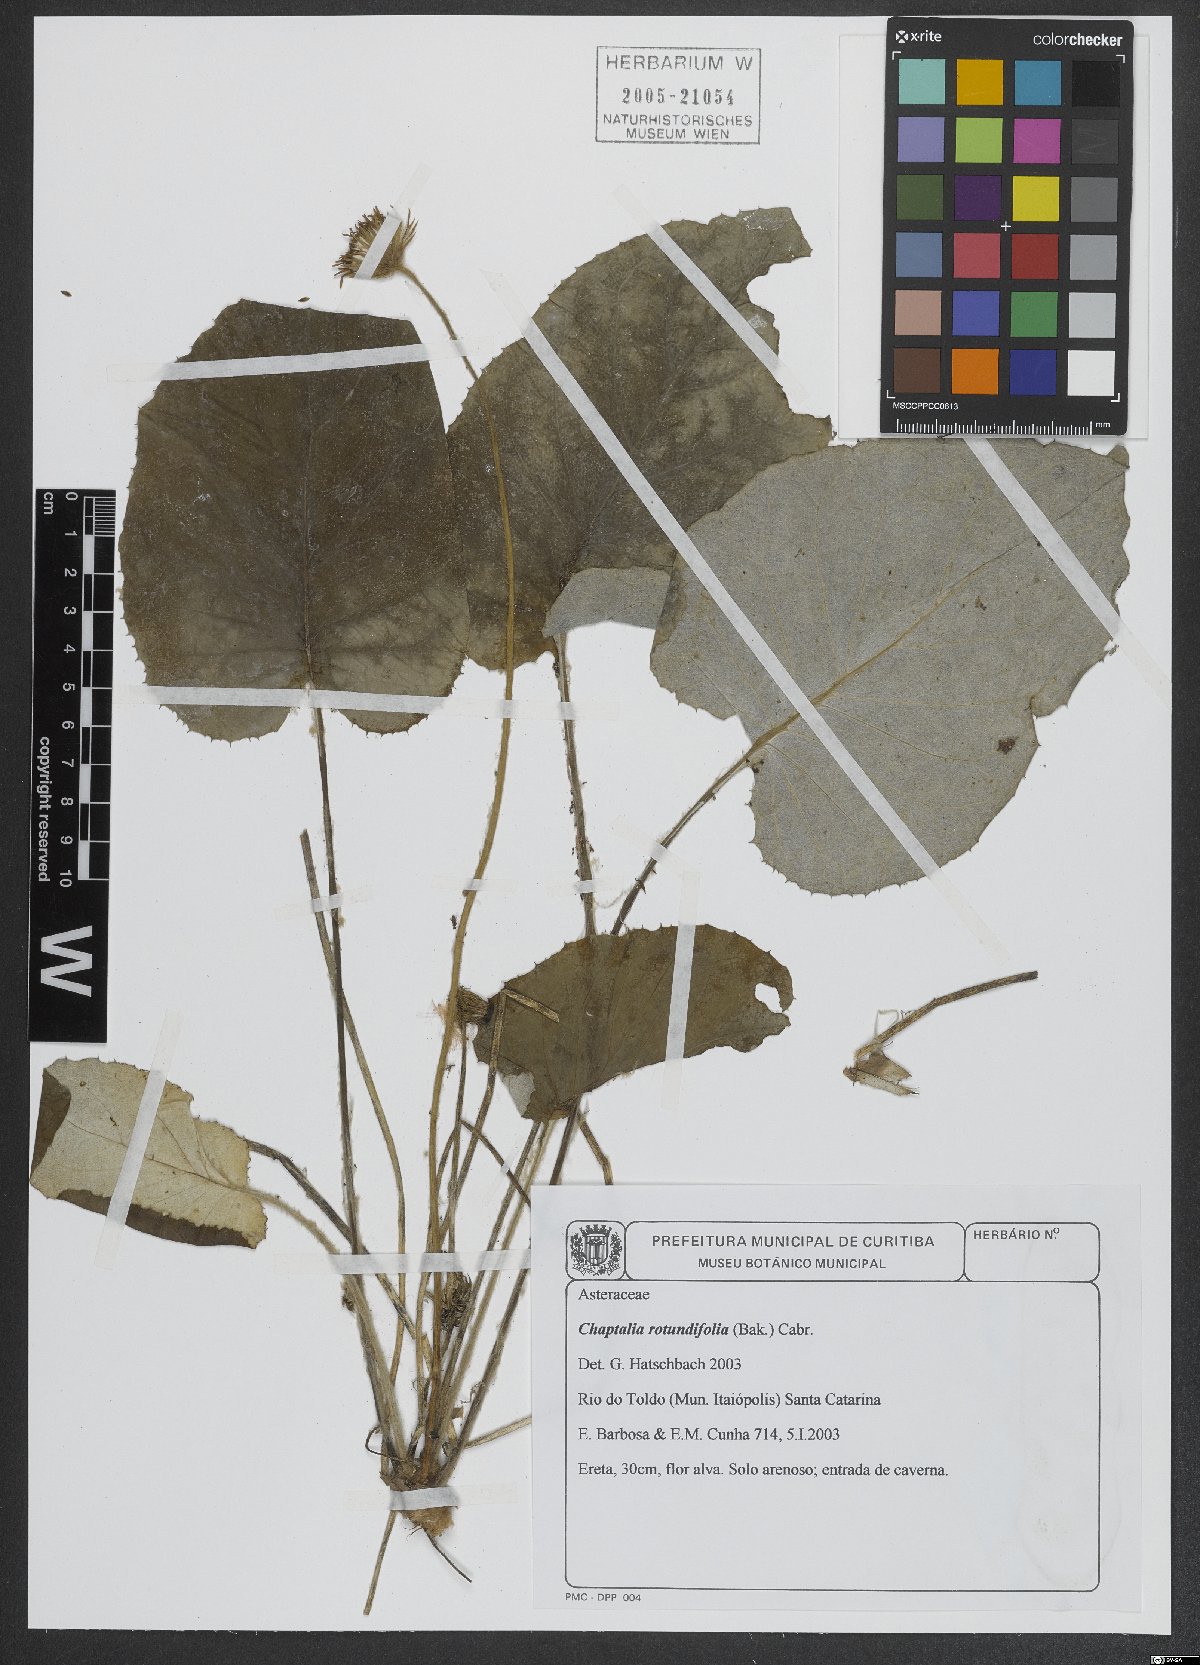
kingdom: Plantae
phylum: Tracheophyta
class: Magnoliopsida
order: Asterales
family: Asteraceae
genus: Chaptalia
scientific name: Chaptalia cordifolia
